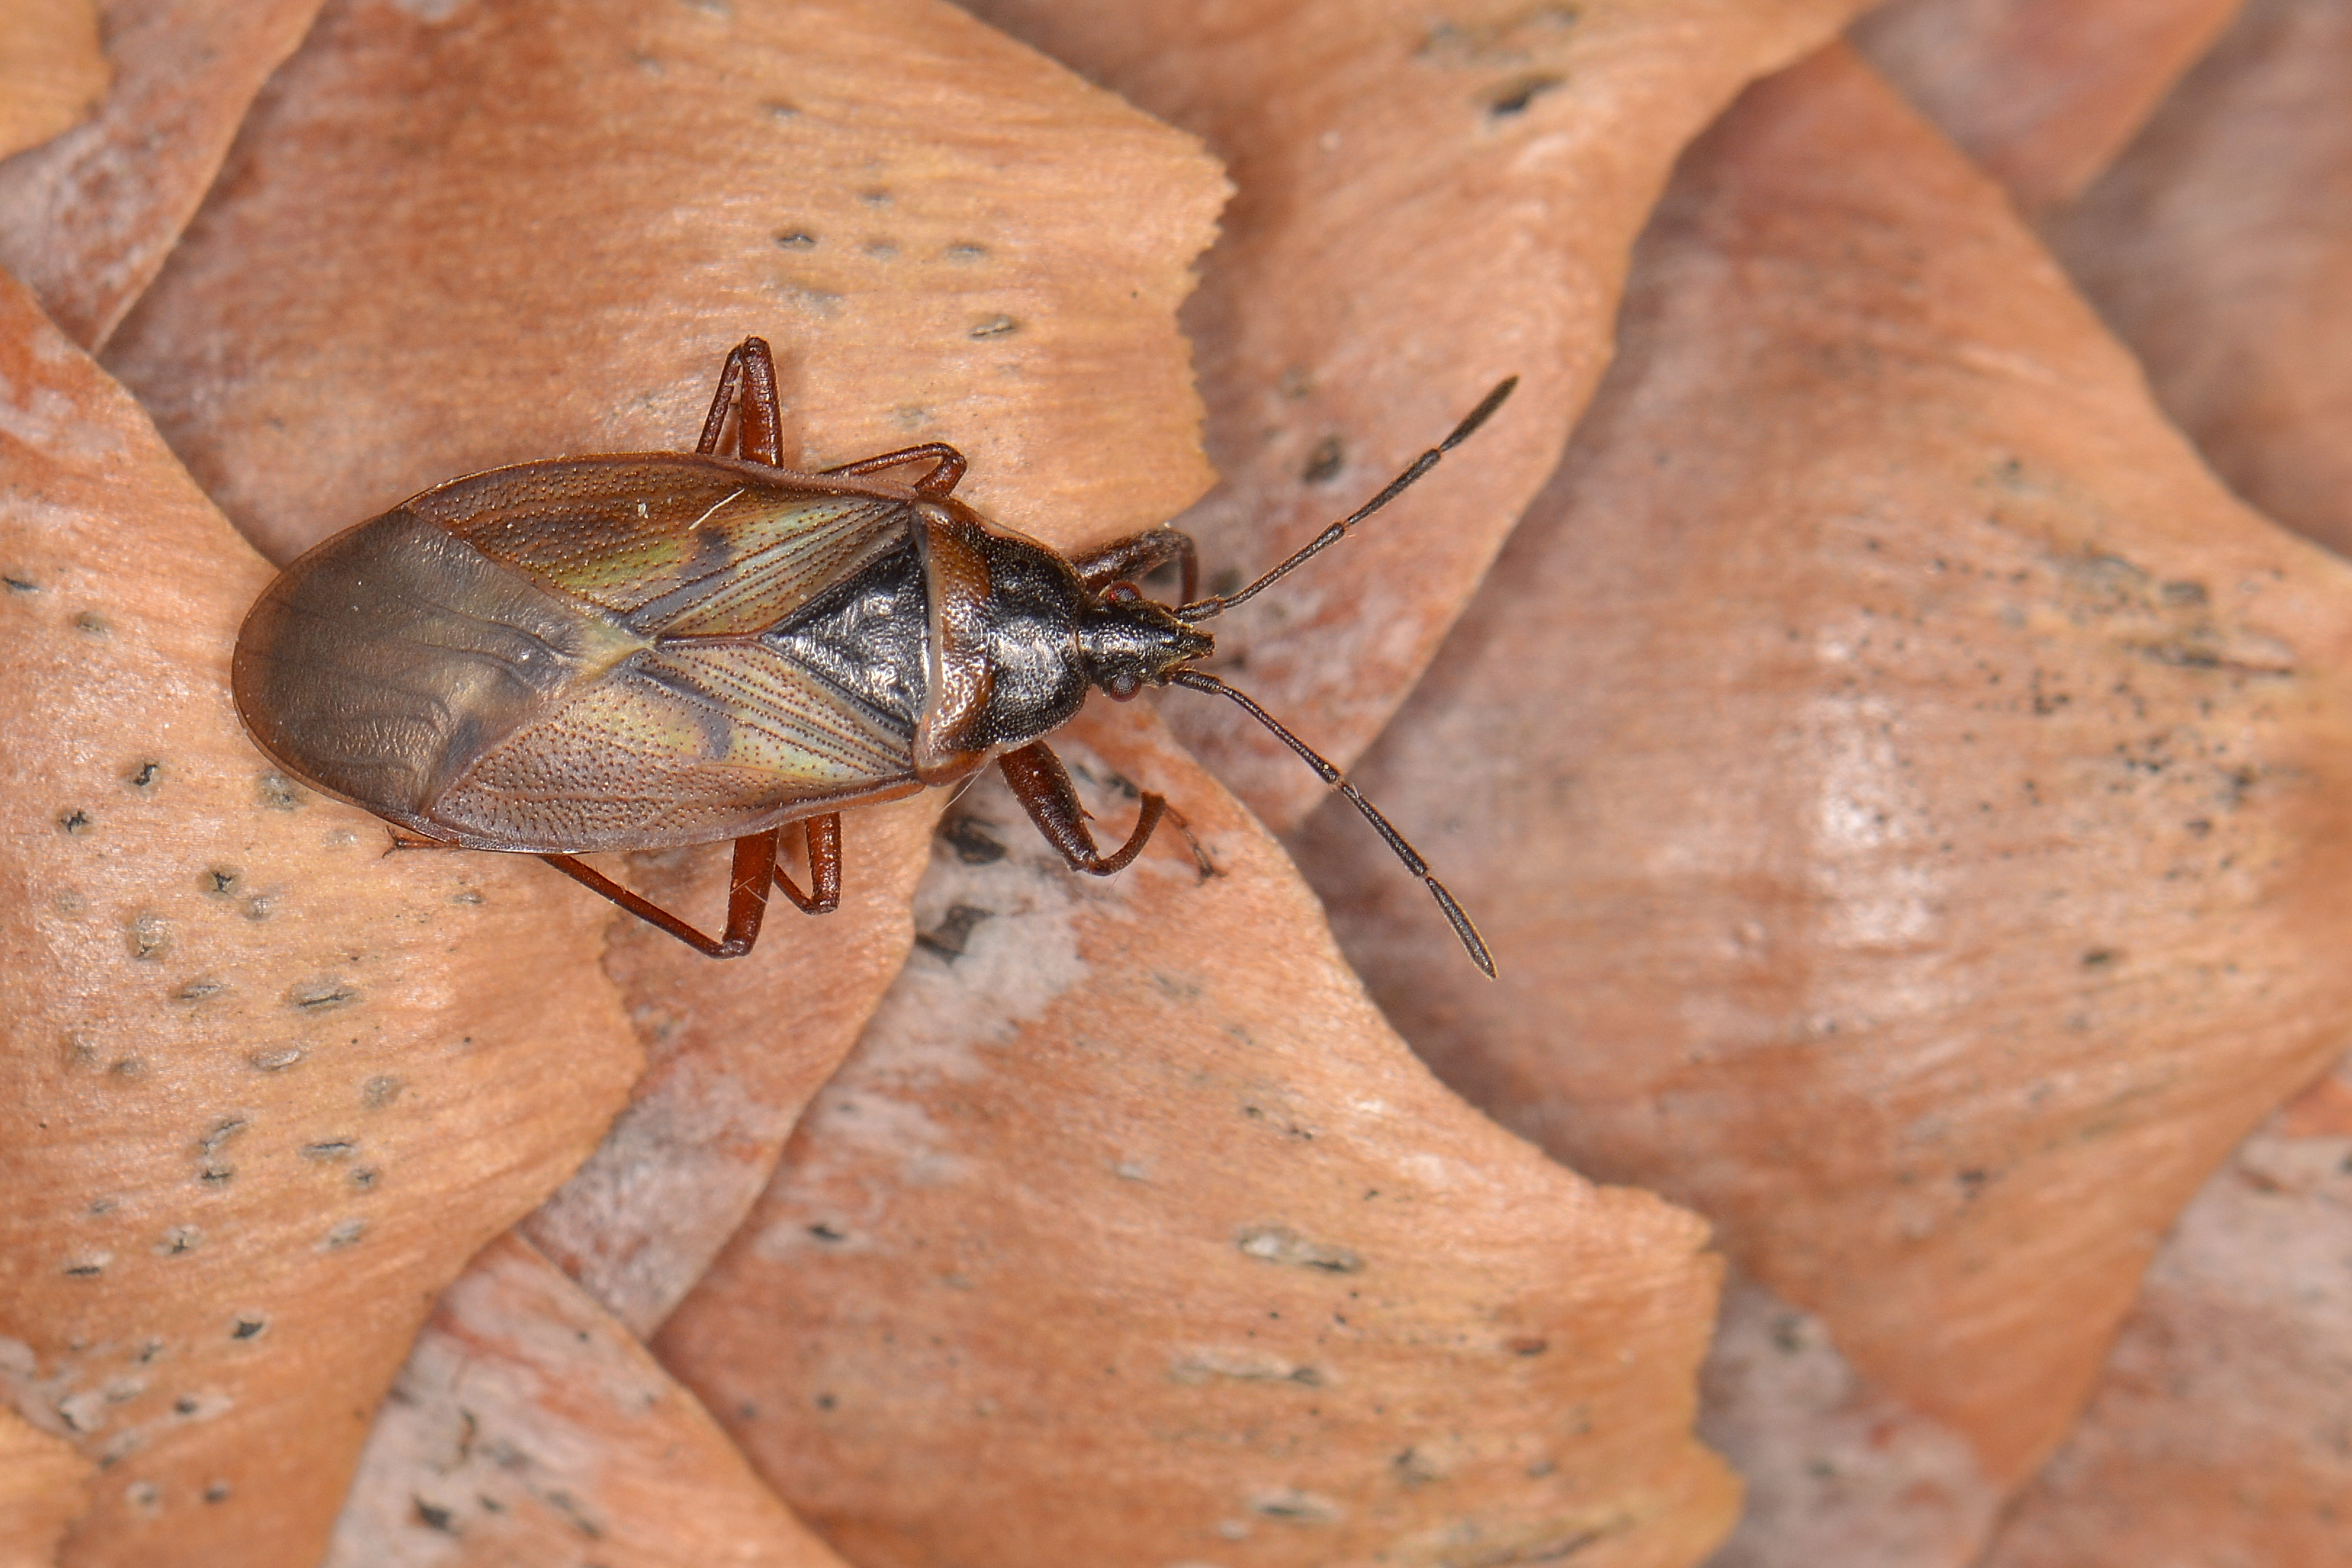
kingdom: Animalia
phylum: Arthropoda
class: Insecta
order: Hemiptera
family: Rhyparochromidae
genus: Gastrodes
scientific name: Gastrodes abietum
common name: Spruce cone bug
